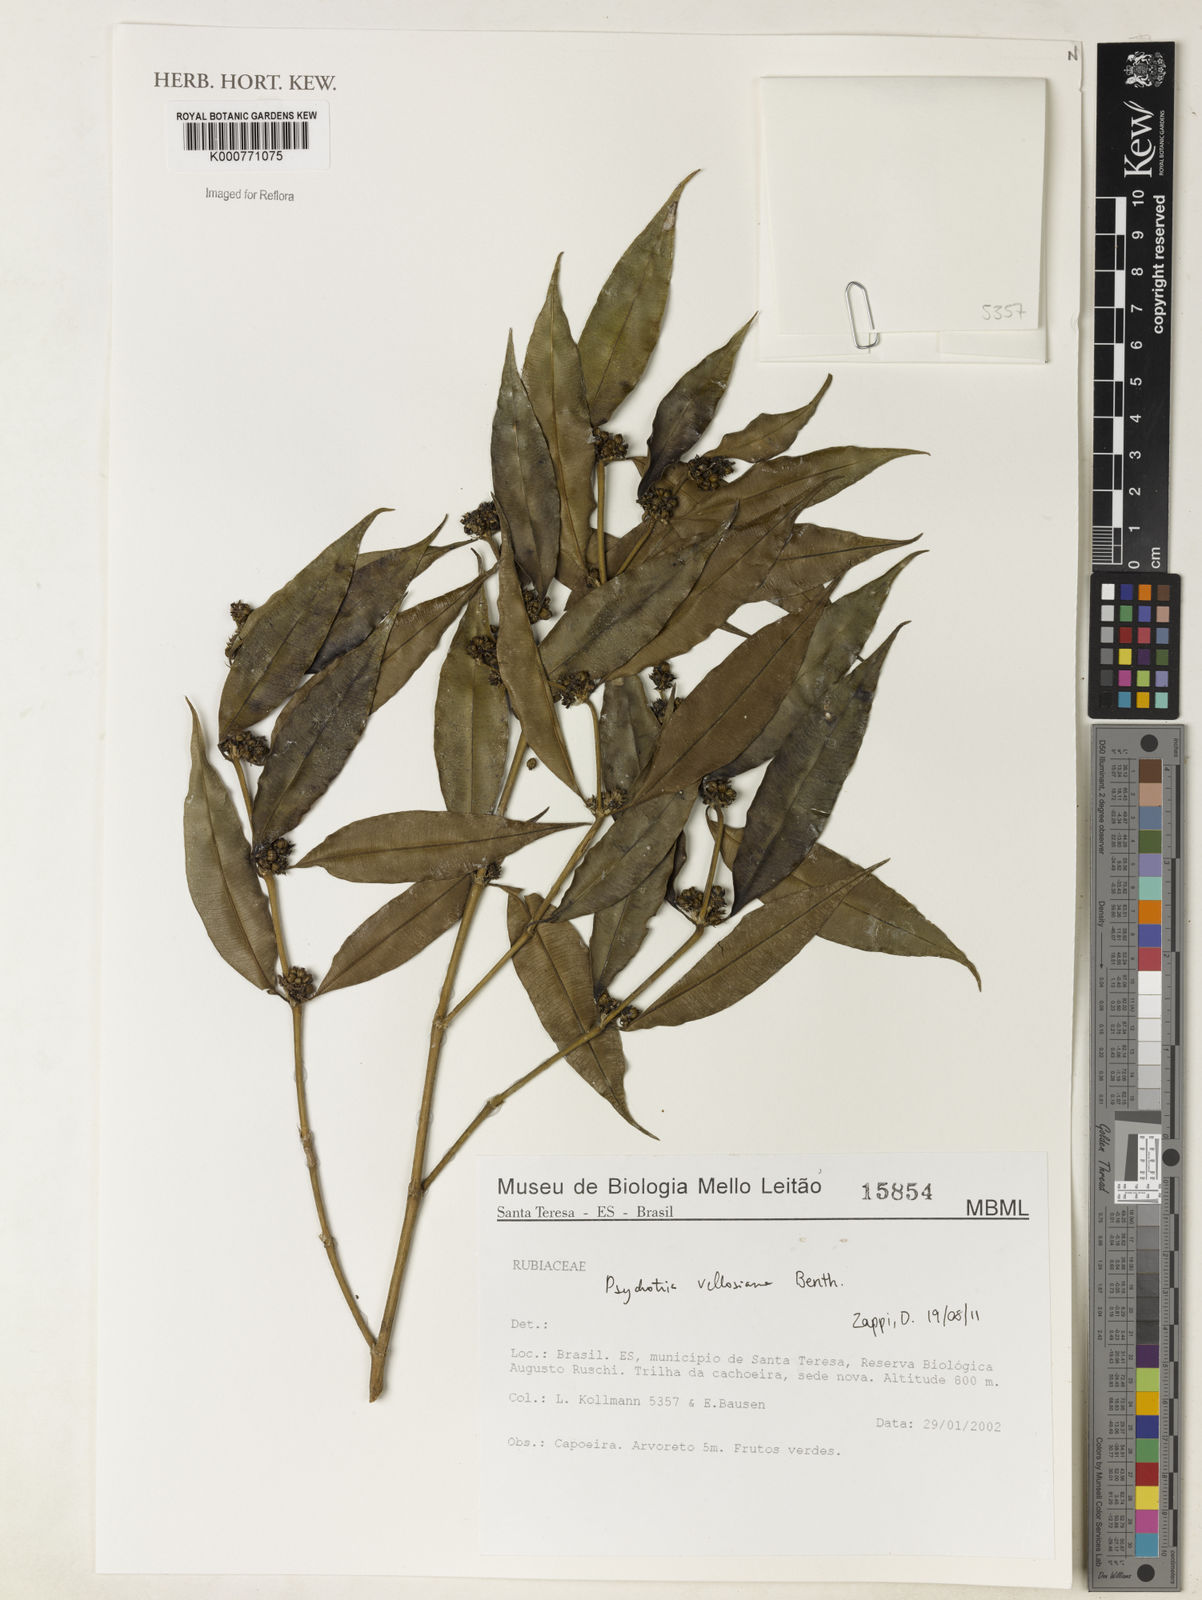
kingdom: Plantae
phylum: Tracheophyta
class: Magnoliopsida
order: Gentianales
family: Rubiaceae
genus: Palicourea
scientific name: Palicourea sessilis
